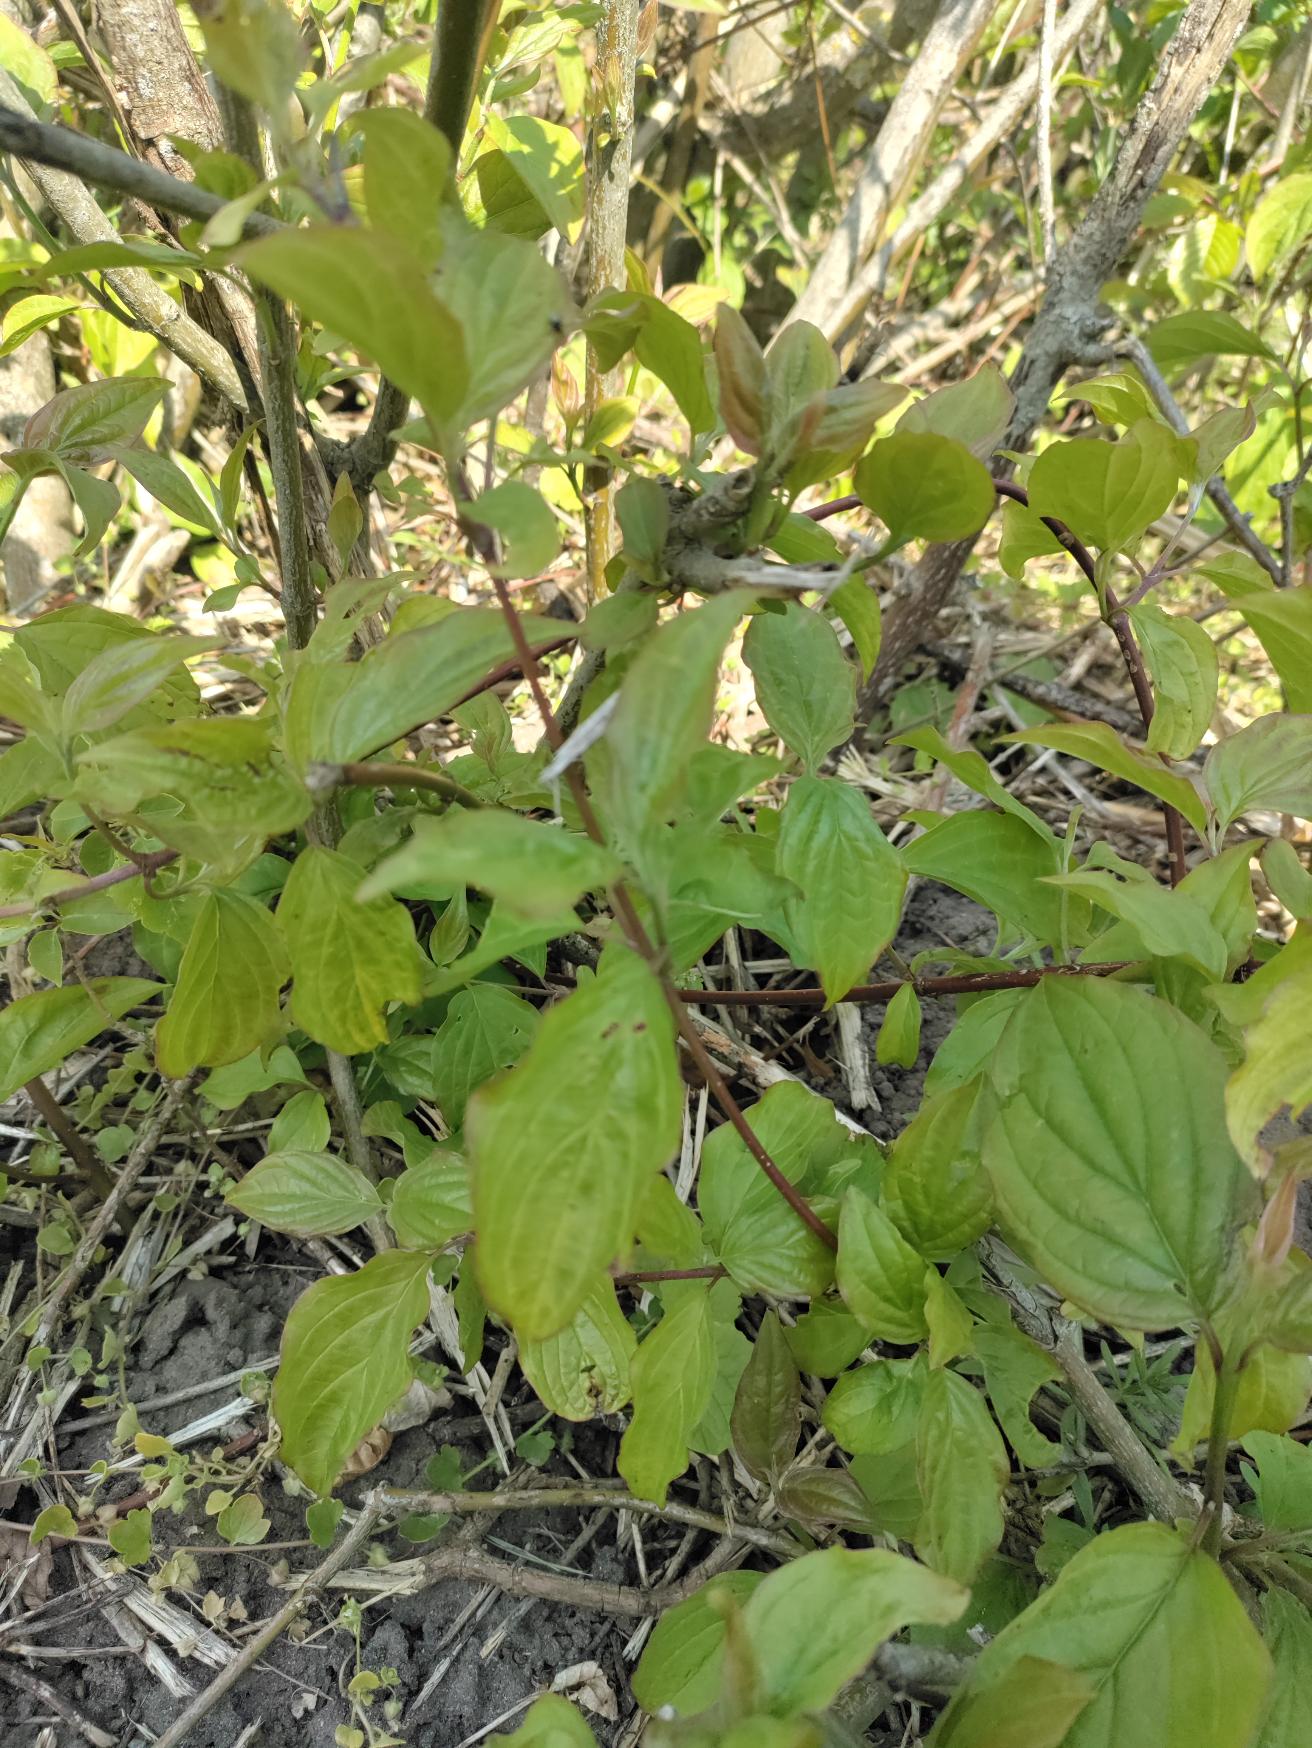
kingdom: Plantae
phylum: Tracheophyta
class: Magnoliopsida
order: Cornales
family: Cornaceae
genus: Cornus
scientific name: Cornus sanguinea
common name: Rød kornel
